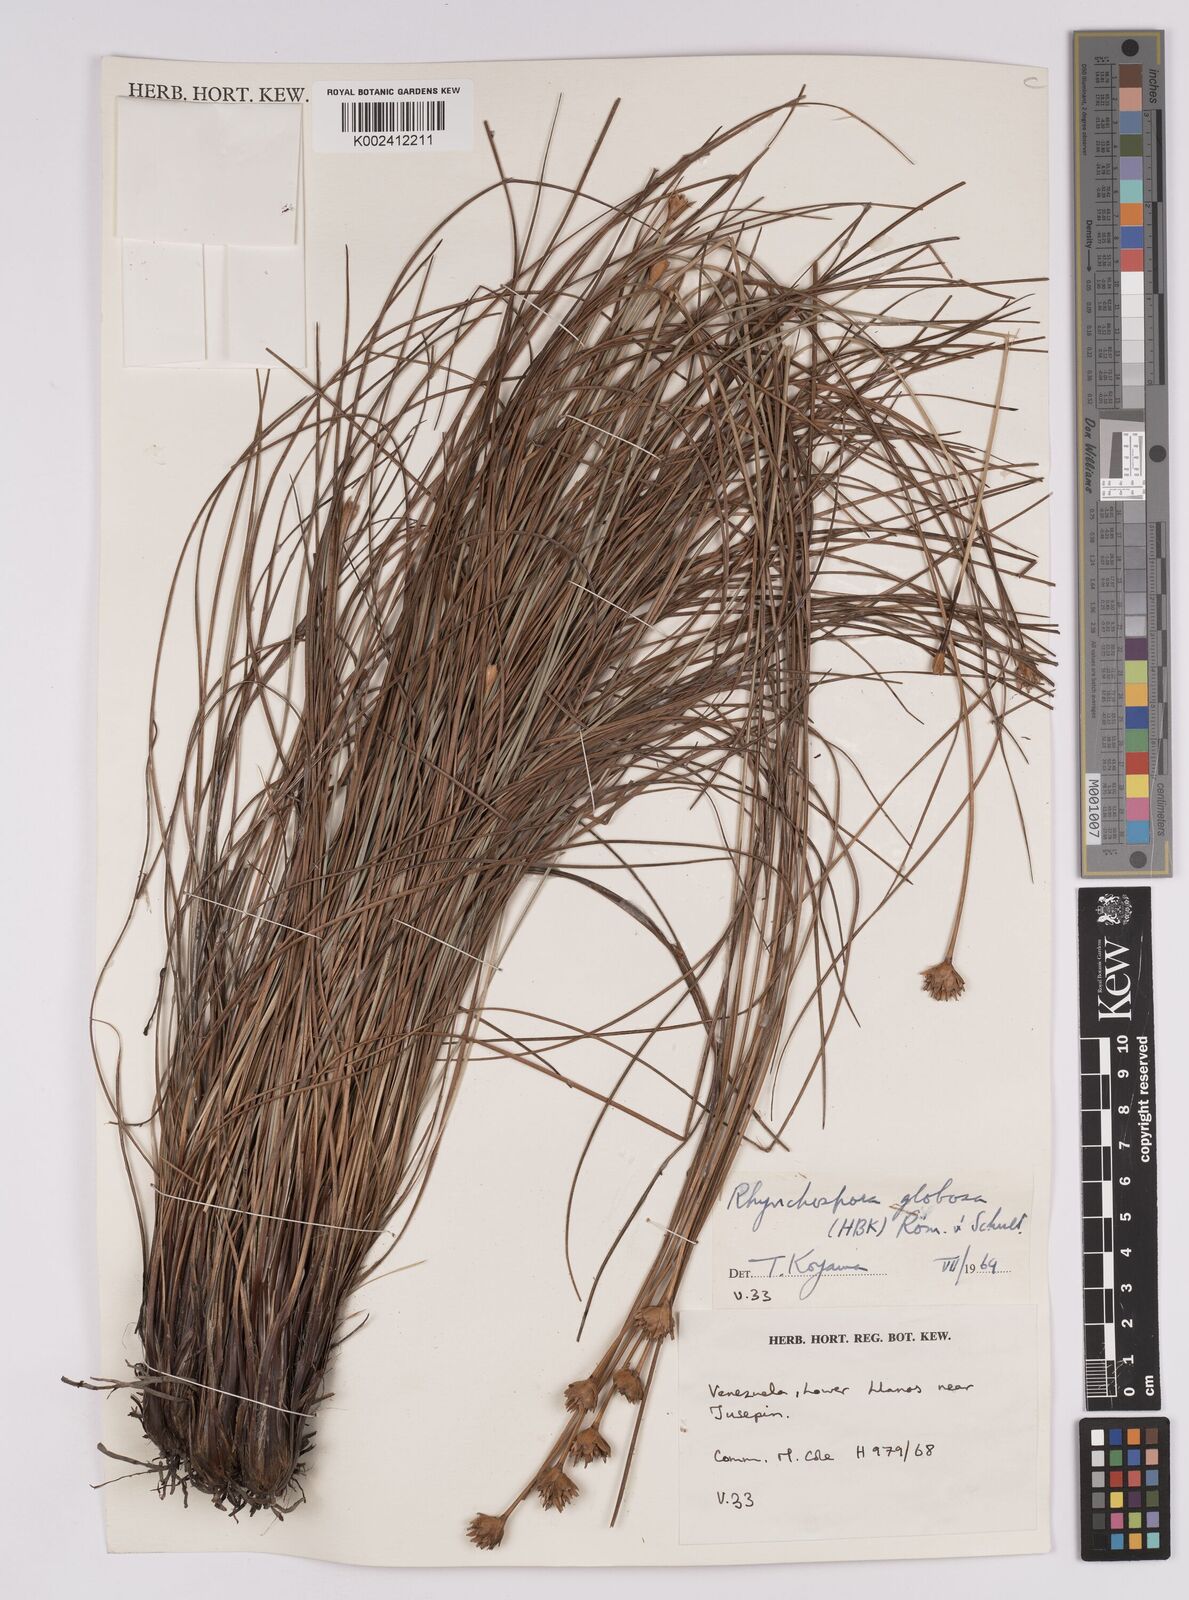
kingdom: Plantae
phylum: Tracheophyta
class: Liliopsida
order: Poales
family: Cyperaceae
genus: Rhynchospora
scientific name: Rhynchospora globosa
